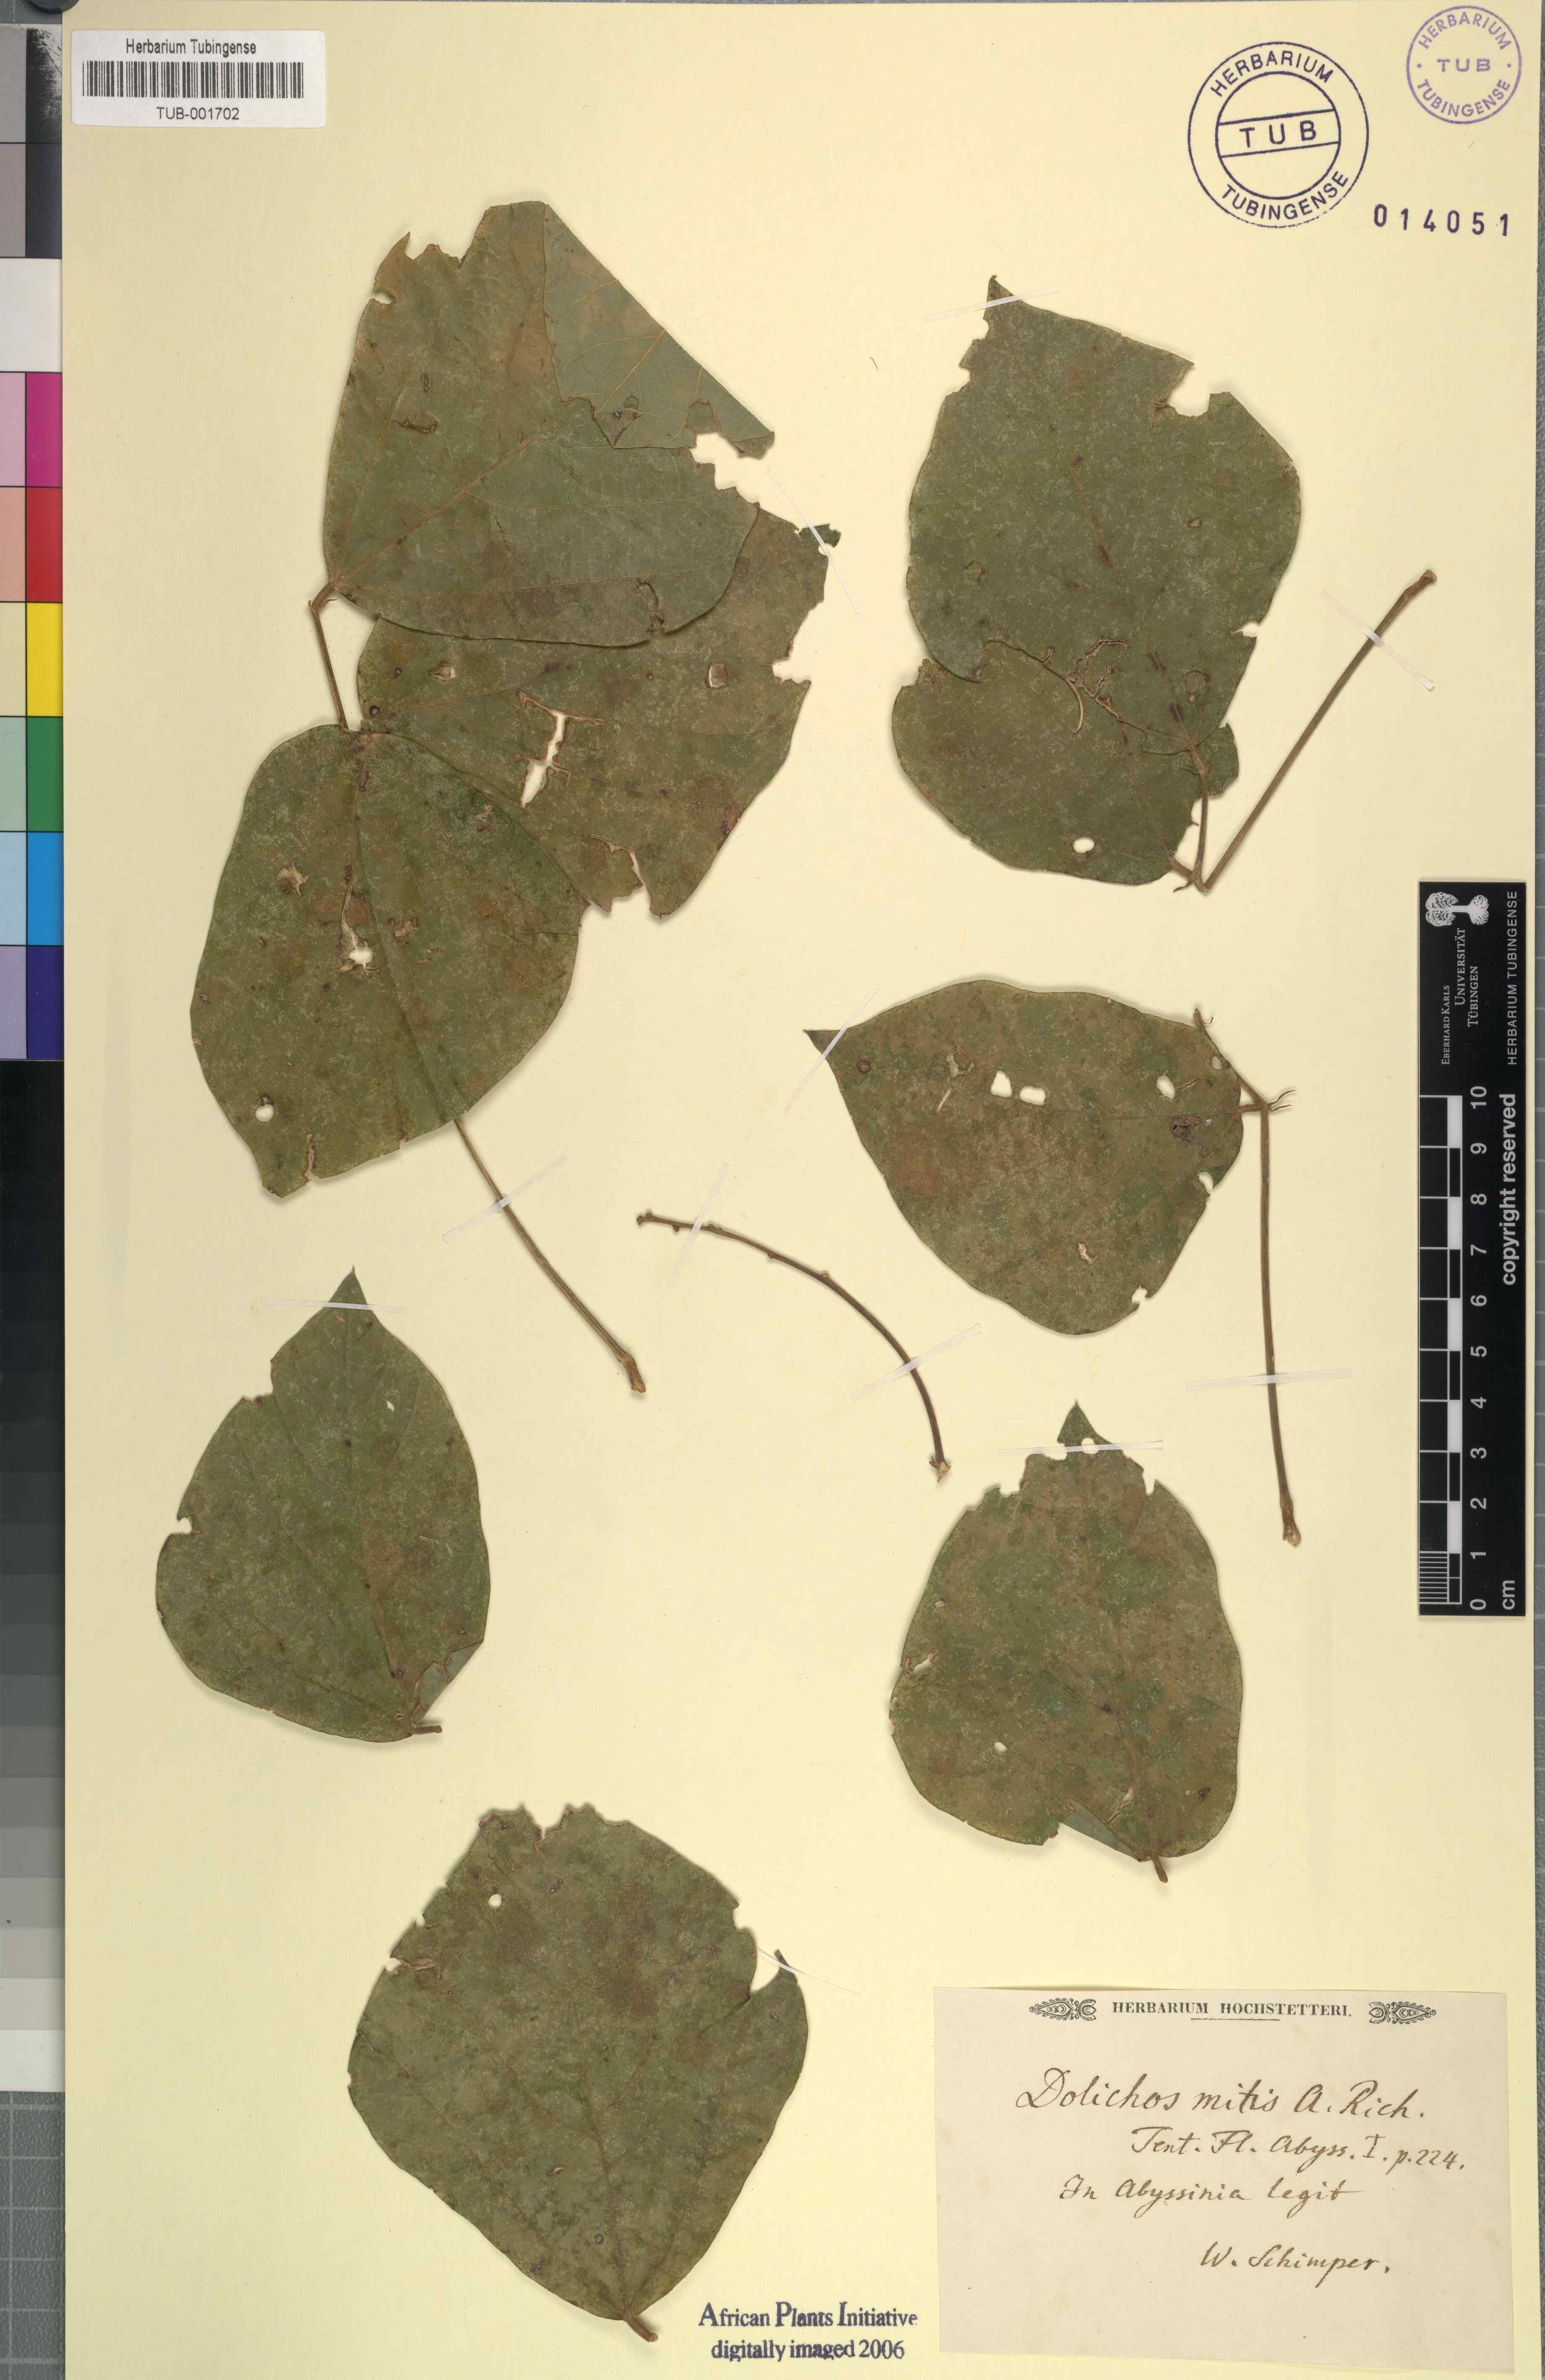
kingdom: Plantae
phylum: Tracheophyta
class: Magnoliopsida
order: Fabales
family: Fabaceae
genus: Neorautanenia
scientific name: Neorautanenia mitis
